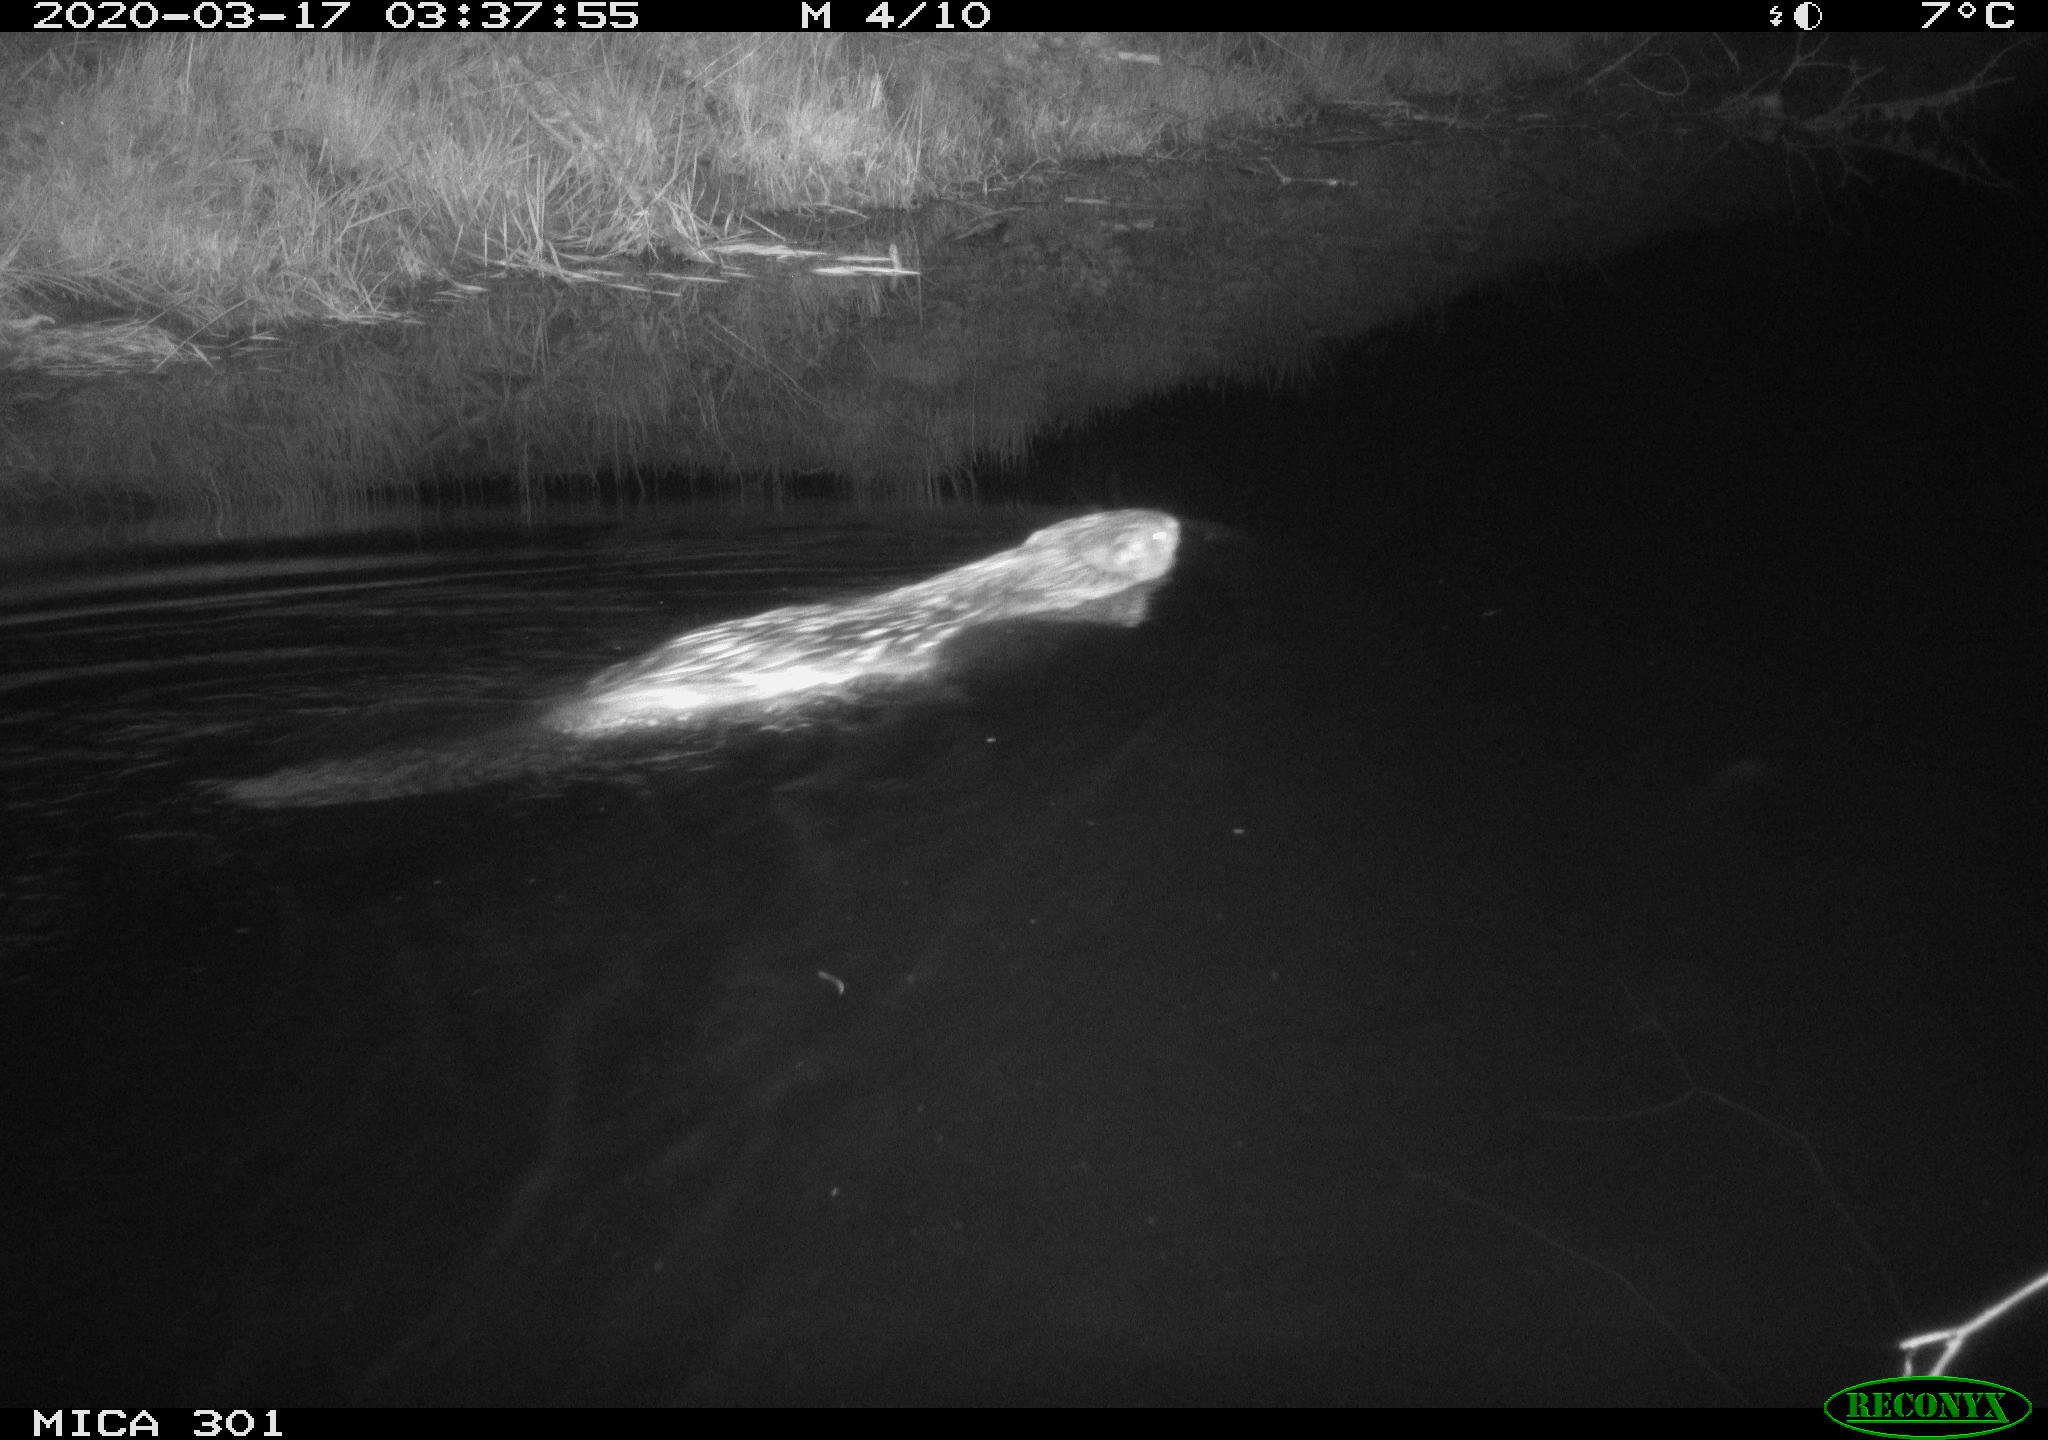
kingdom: Animalia
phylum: Chordata
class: Mammalia
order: Rodentia
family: Castoridae
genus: Castor
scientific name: Castor fiber
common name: Eurasian beaver
